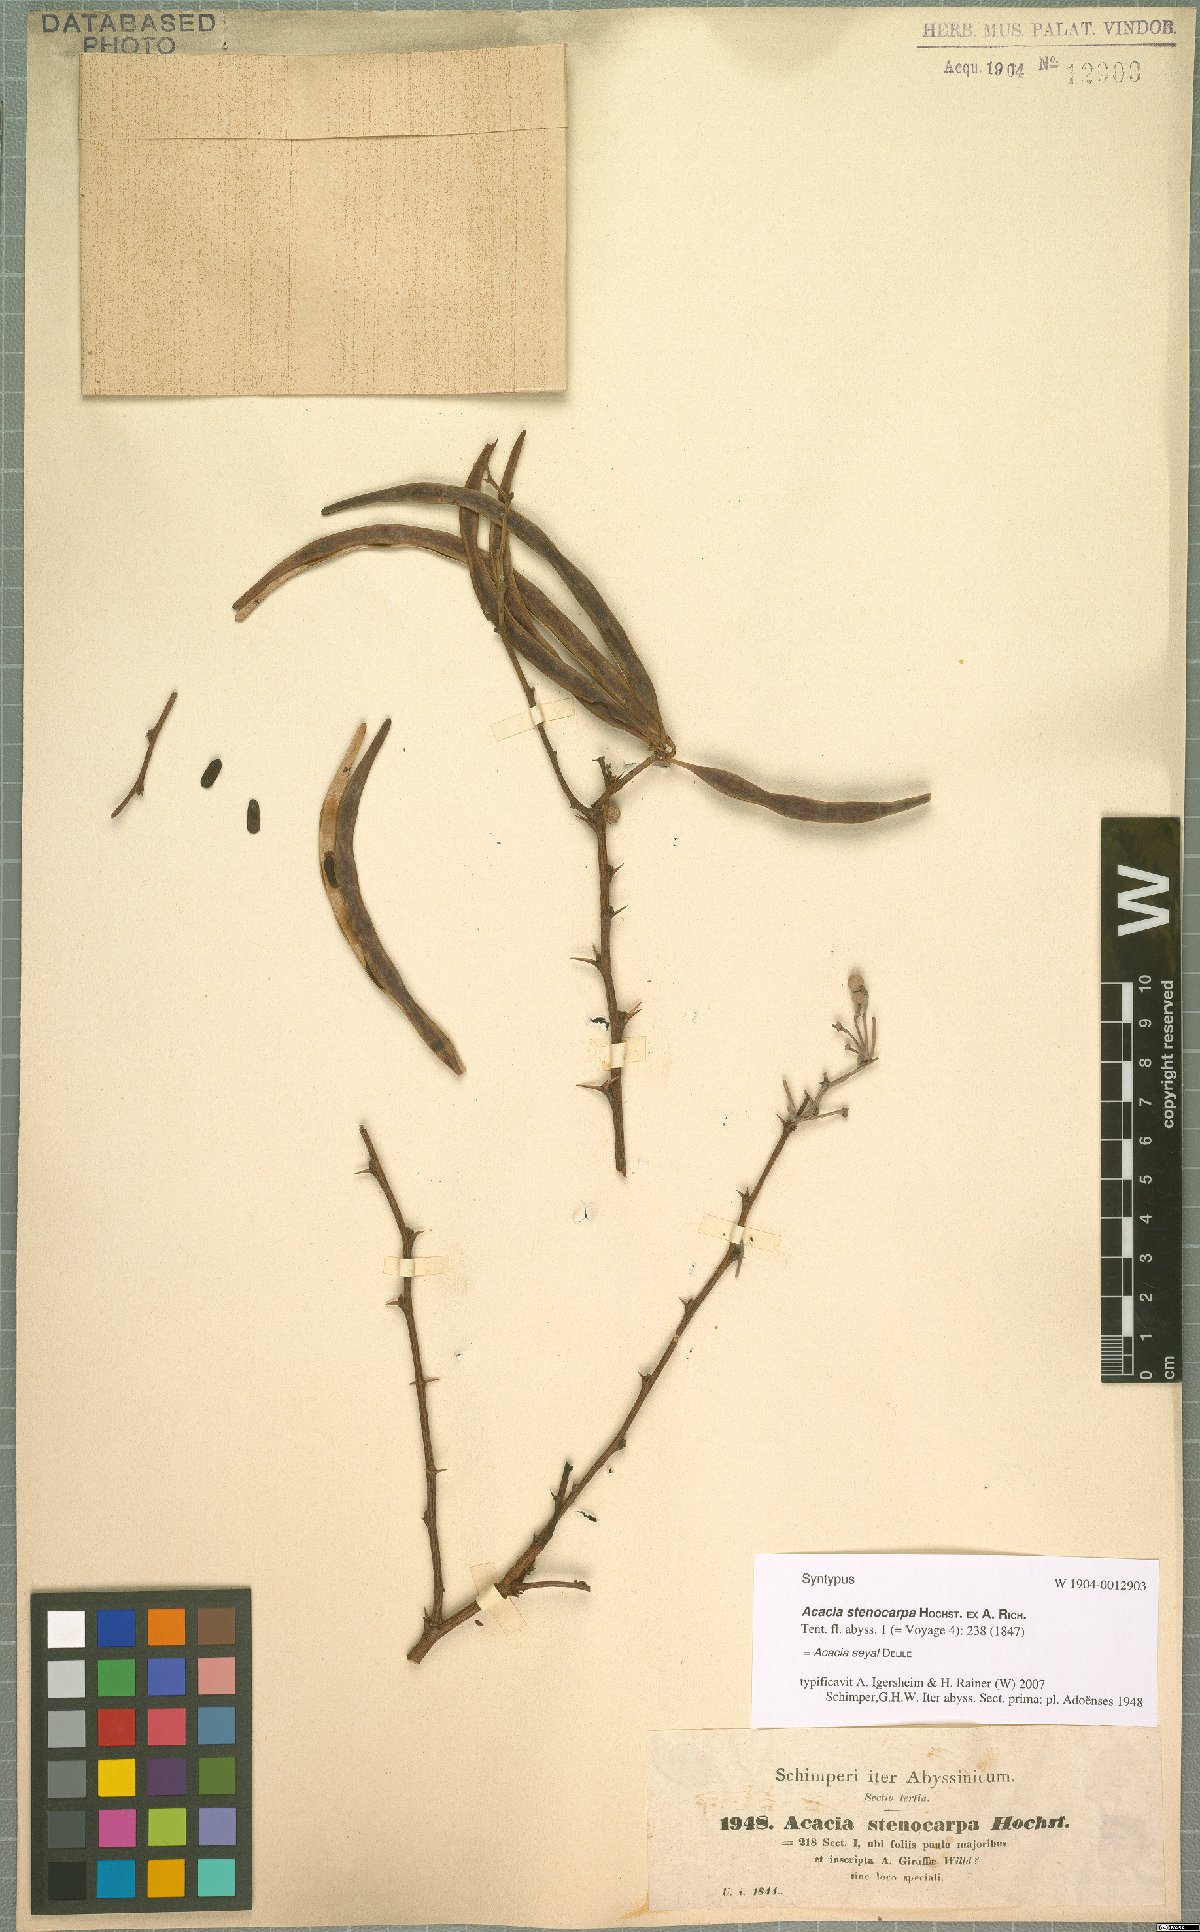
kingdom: Plantae
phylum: Tracheophyta
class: Magnoliopsida
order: Fabales
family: Fabaceae
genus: Vachellia
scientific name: Vachellia seyal
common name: Thirtythorn
